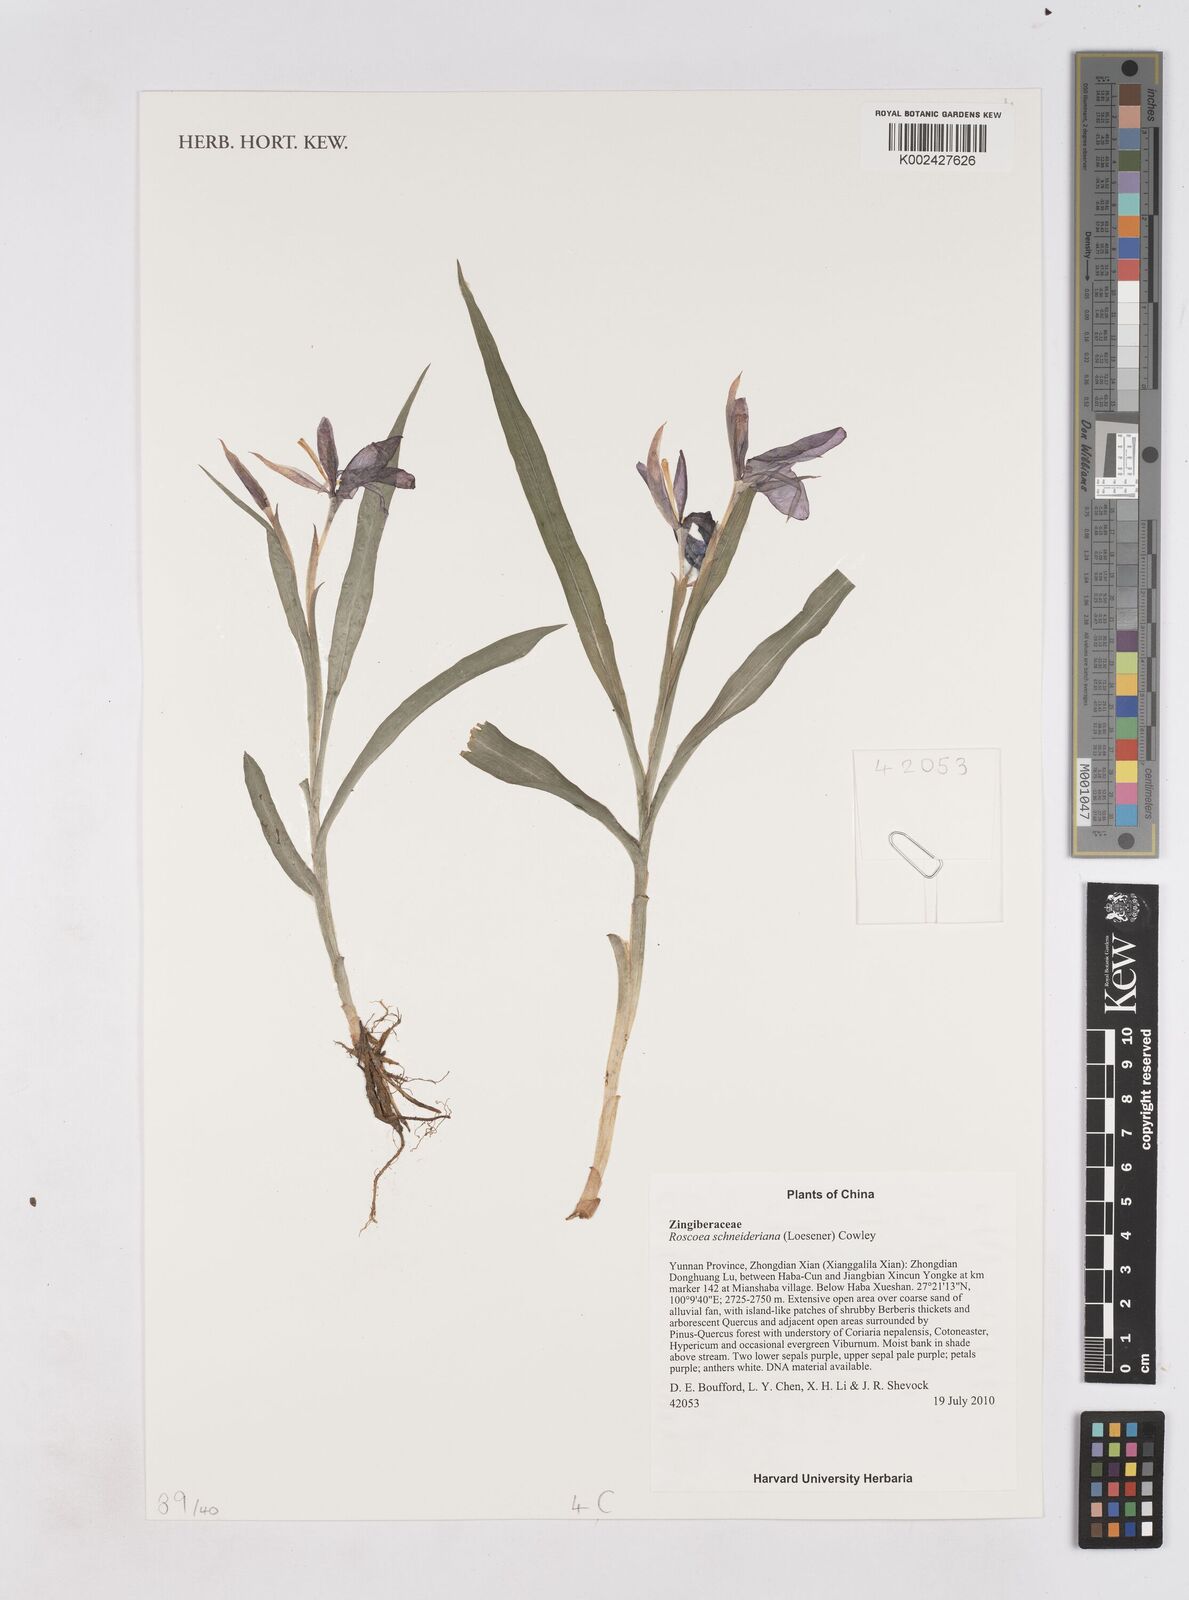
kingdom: Plantae
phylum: Tracheophyta
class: Liliopsida
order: Zingiberales
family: Zingiberaceae
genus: Roscoea
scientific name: Roscoea schneideriana
